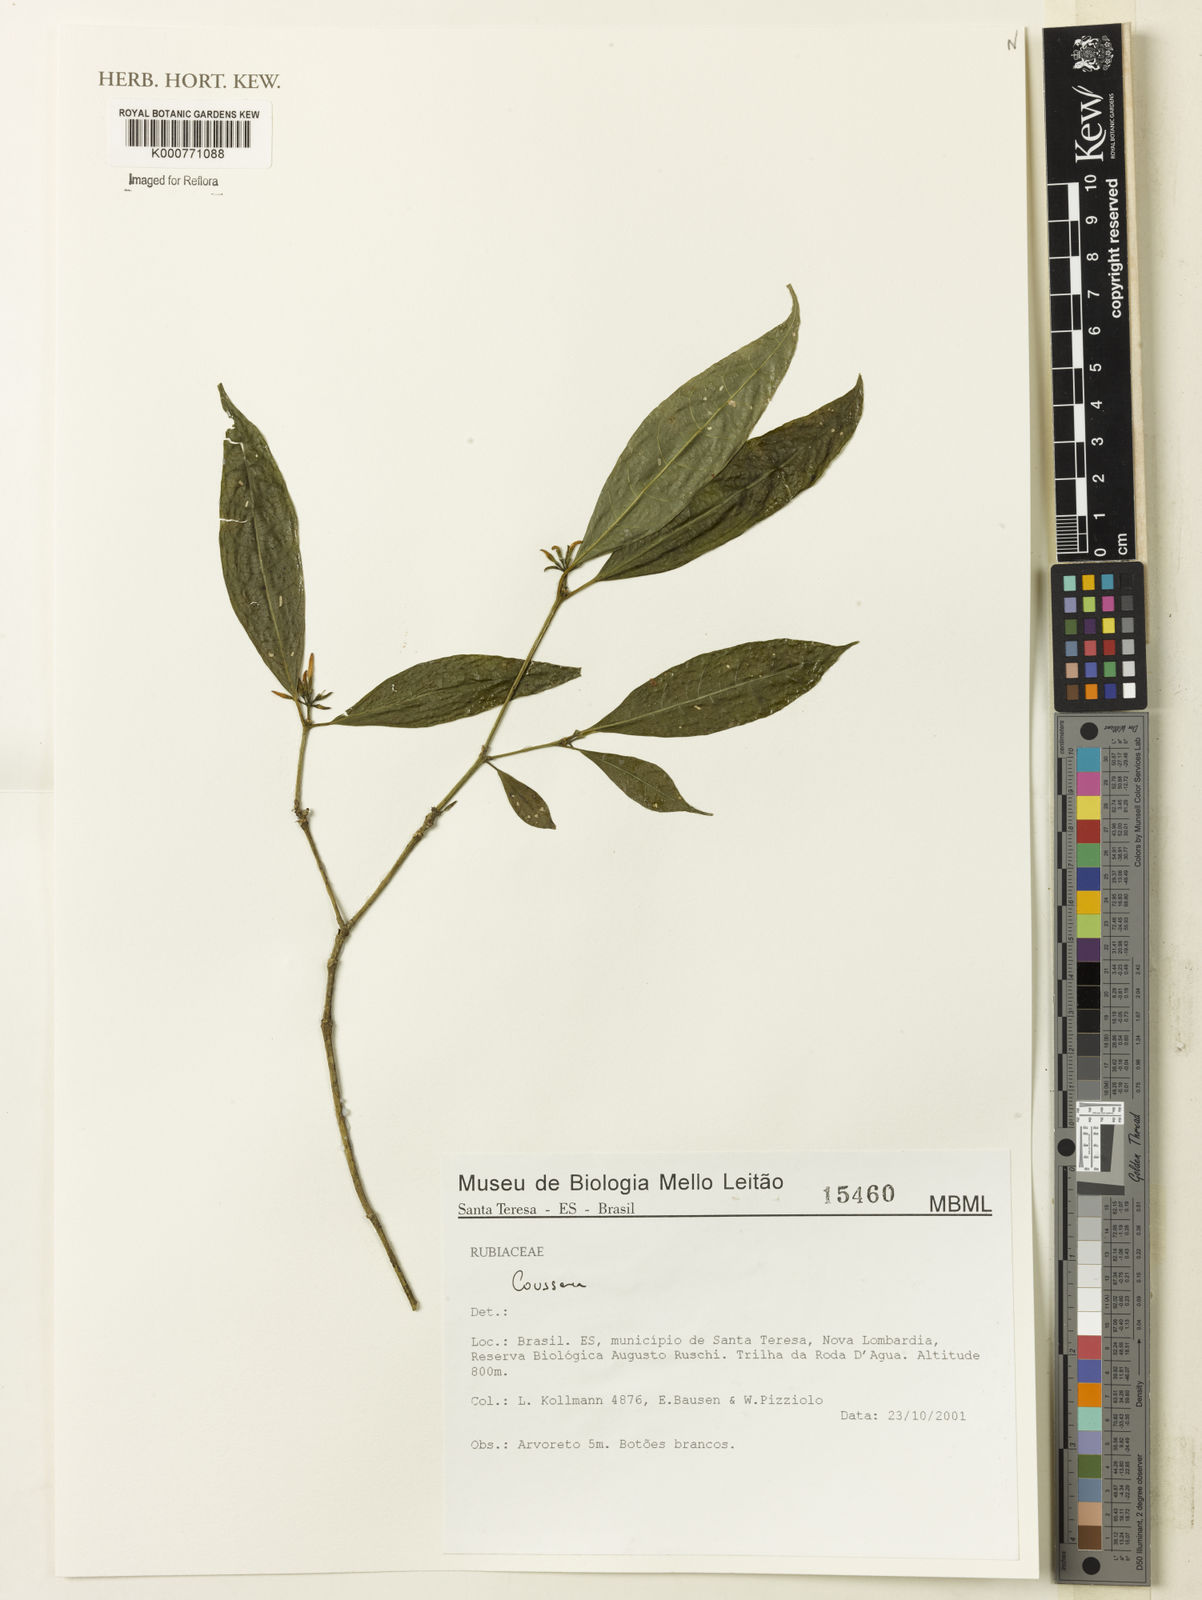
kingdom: Plantae
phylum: Tracheophyta
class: Magnoliopsida
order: Gentianales
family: Rubiaceae
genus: Coussarea
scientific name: Coussarea
